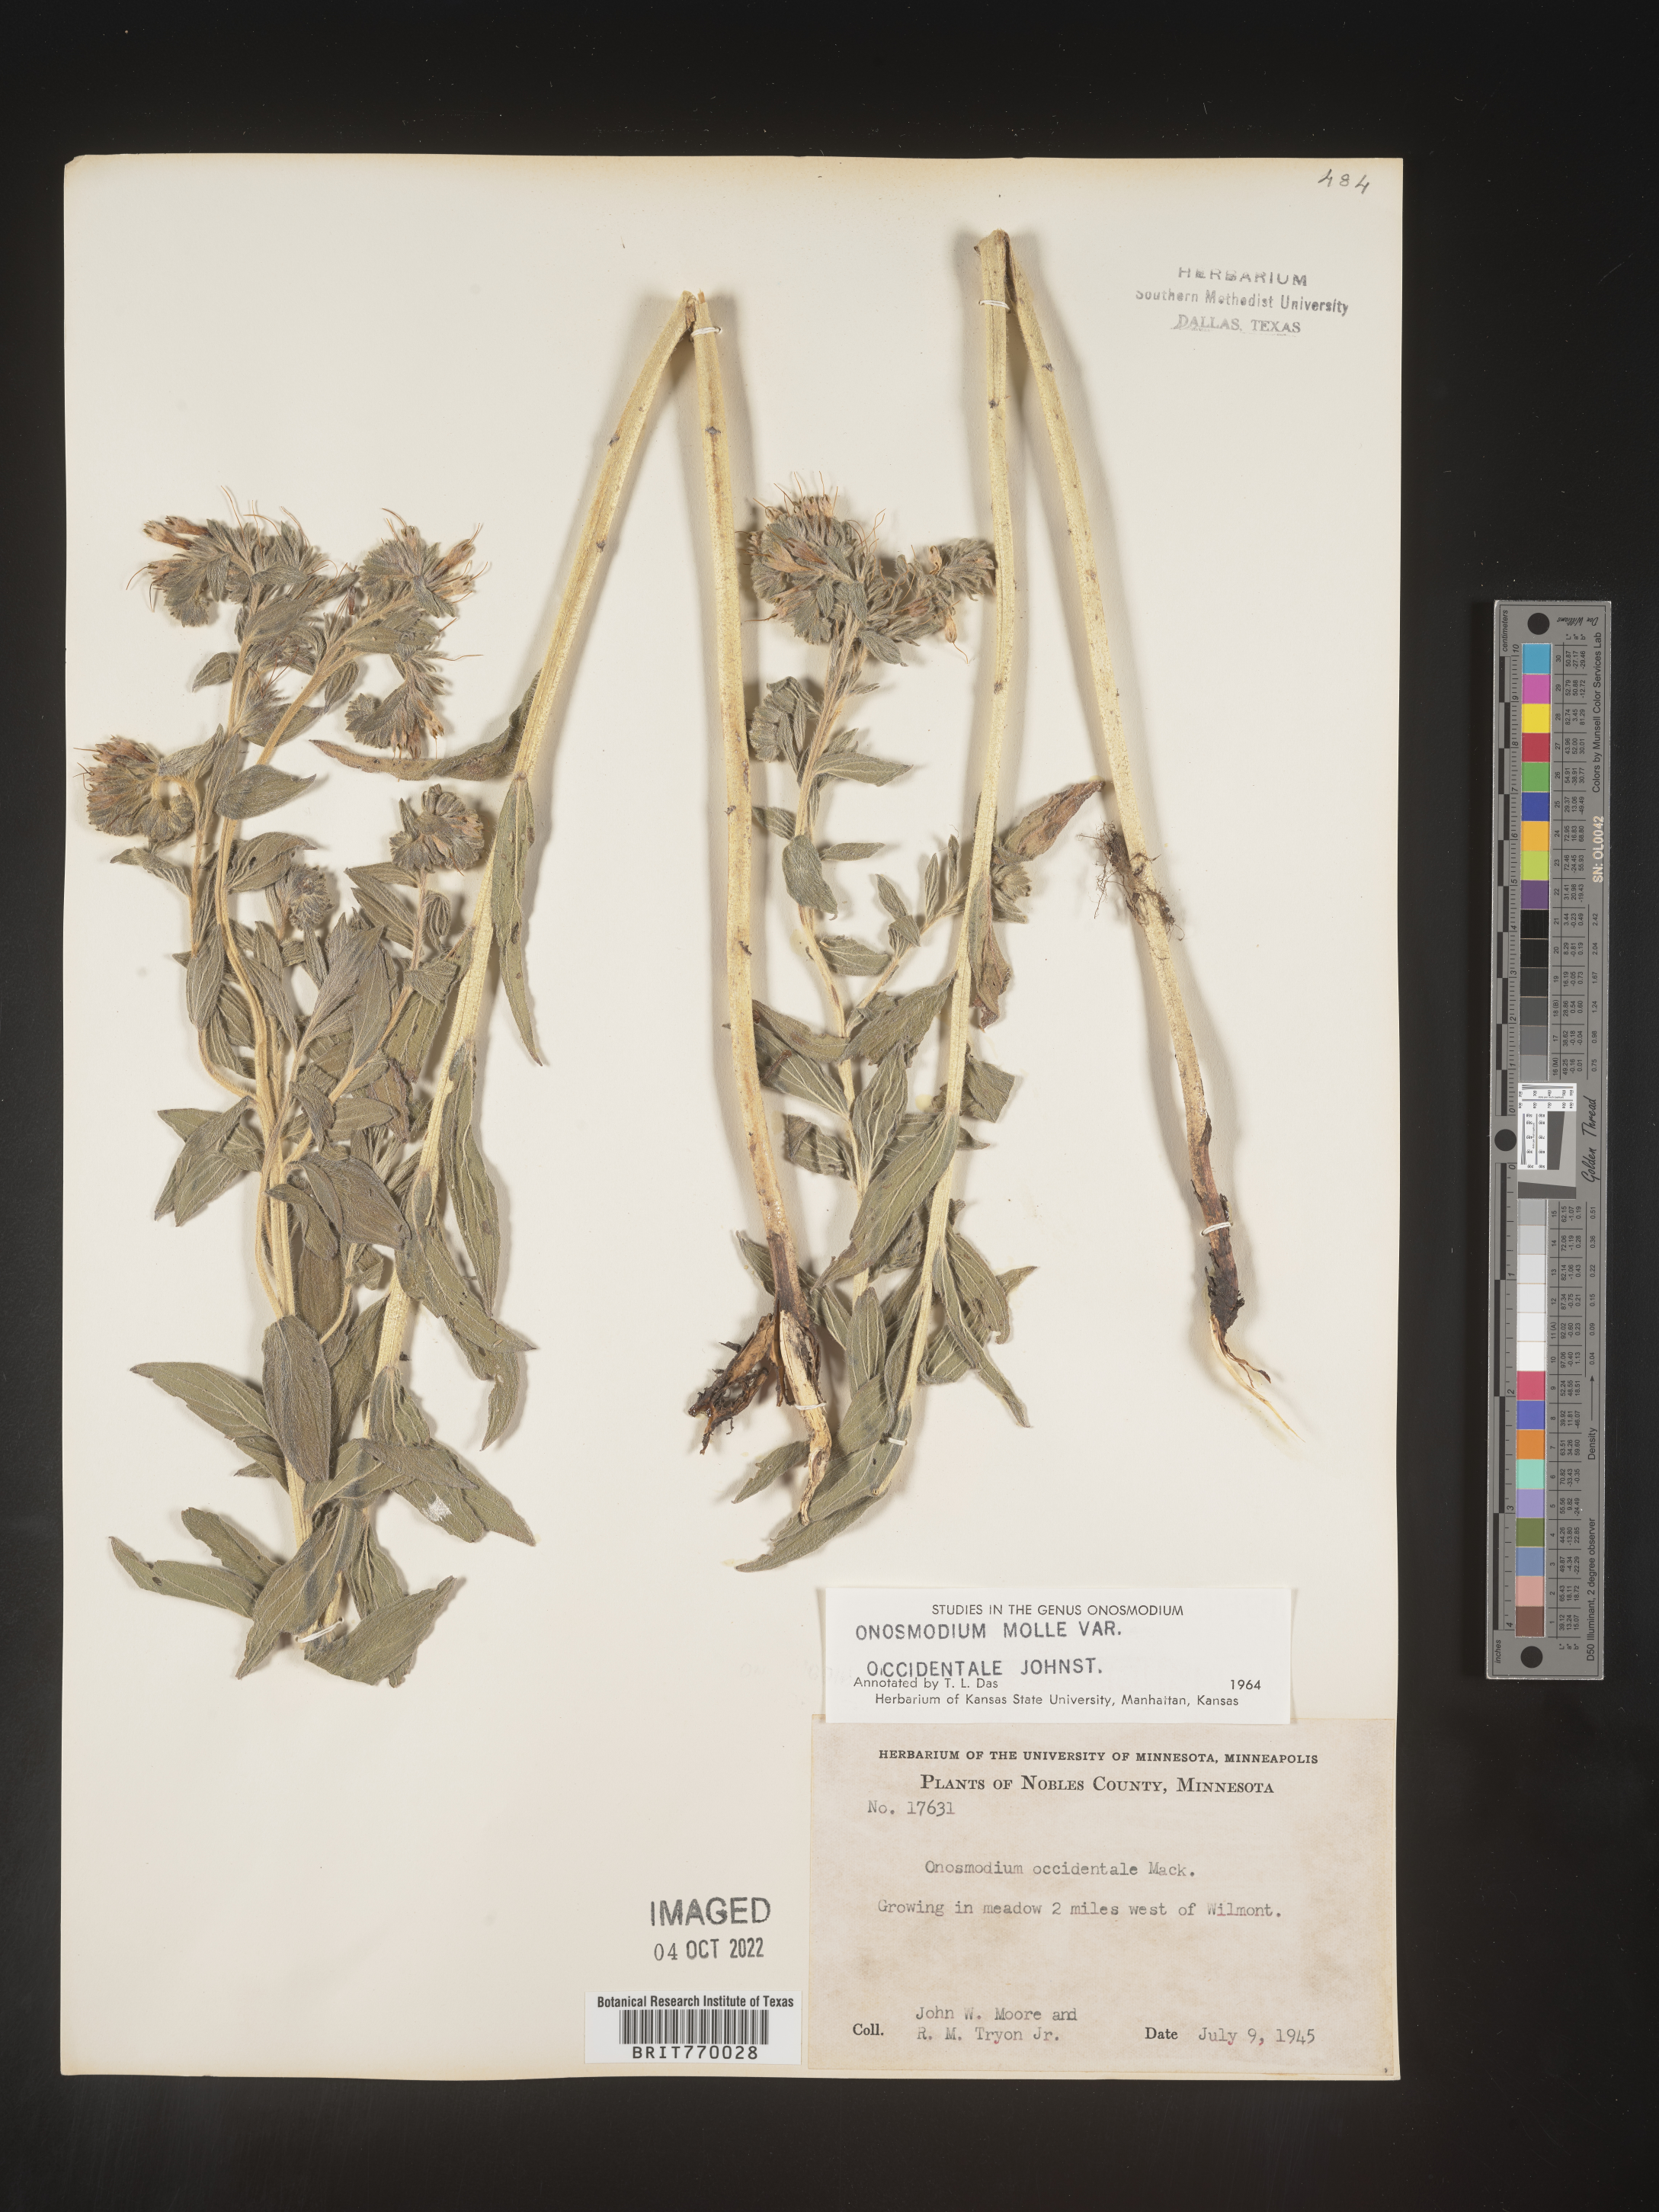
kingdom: Plantae
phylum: Tracheophyta
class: Magnoliopsida
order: Boraginales
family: Boraginaceae
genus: Lithospermum
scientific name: Lithospermum occidentale
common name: Western false gromwell
